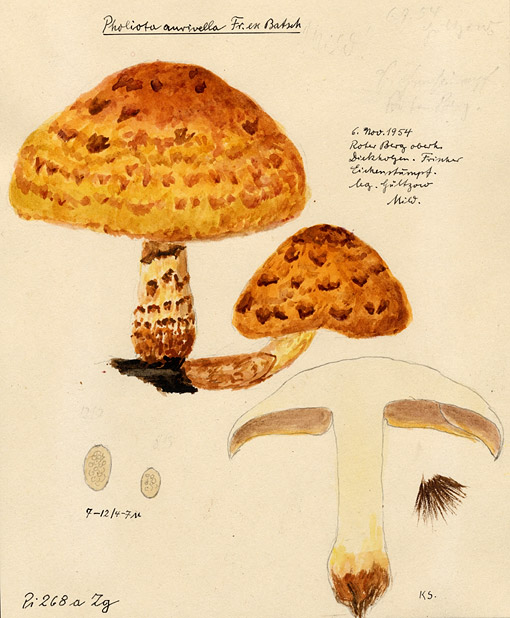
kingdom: Plantae
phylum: Tracheophyta
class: Magnoliopsida
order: Fagales
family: Fagaceae
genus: Quercus
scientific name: Quercus
